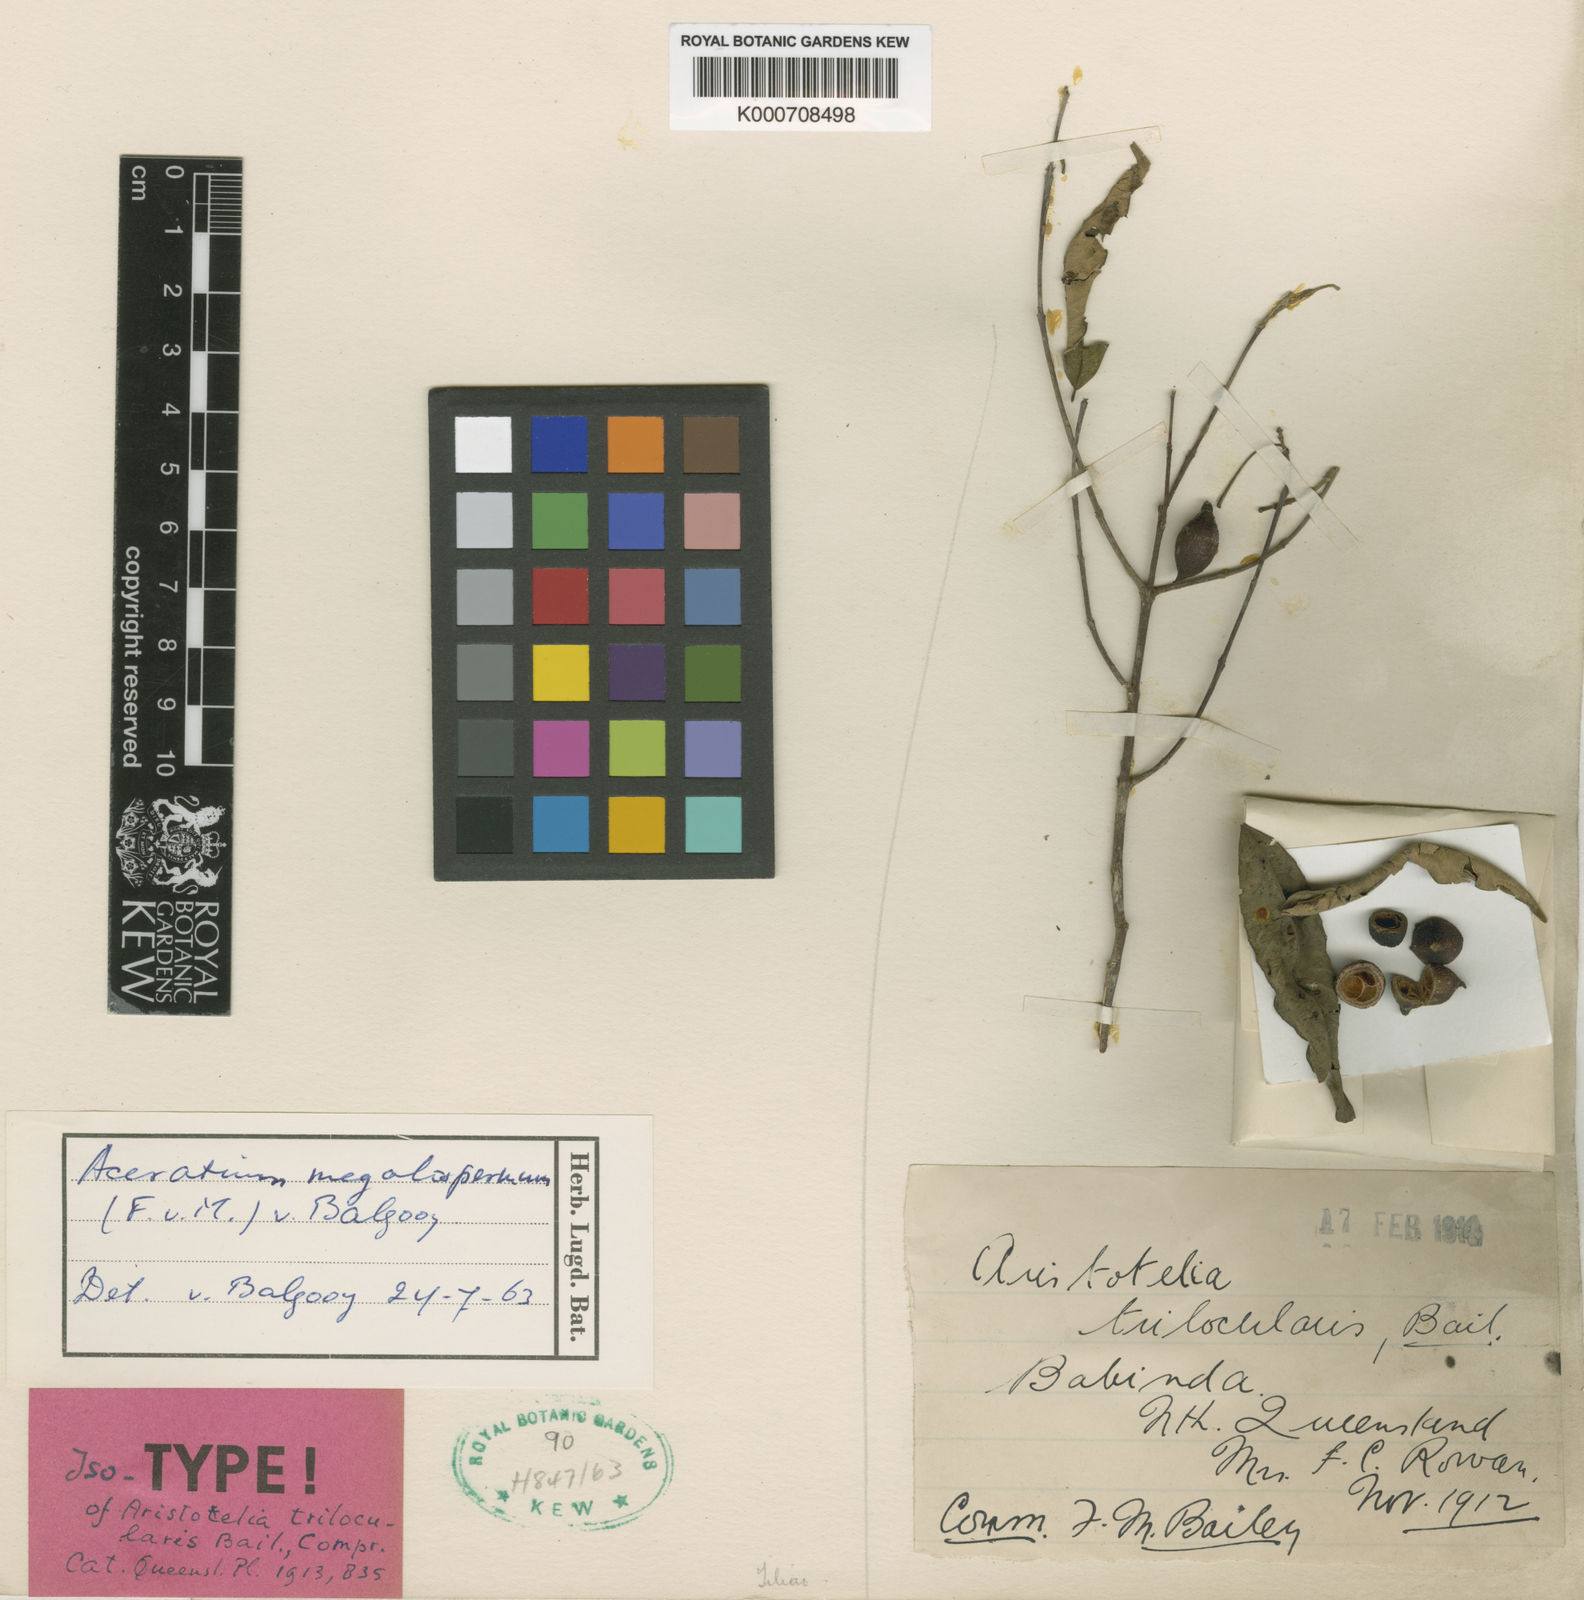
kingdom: Plantae
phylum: Tracheophyta
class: Magnoliopsida
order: Oxalidales
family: Elaeocarpaceae
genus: Aceratium
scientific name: Aceratium megalospermum
